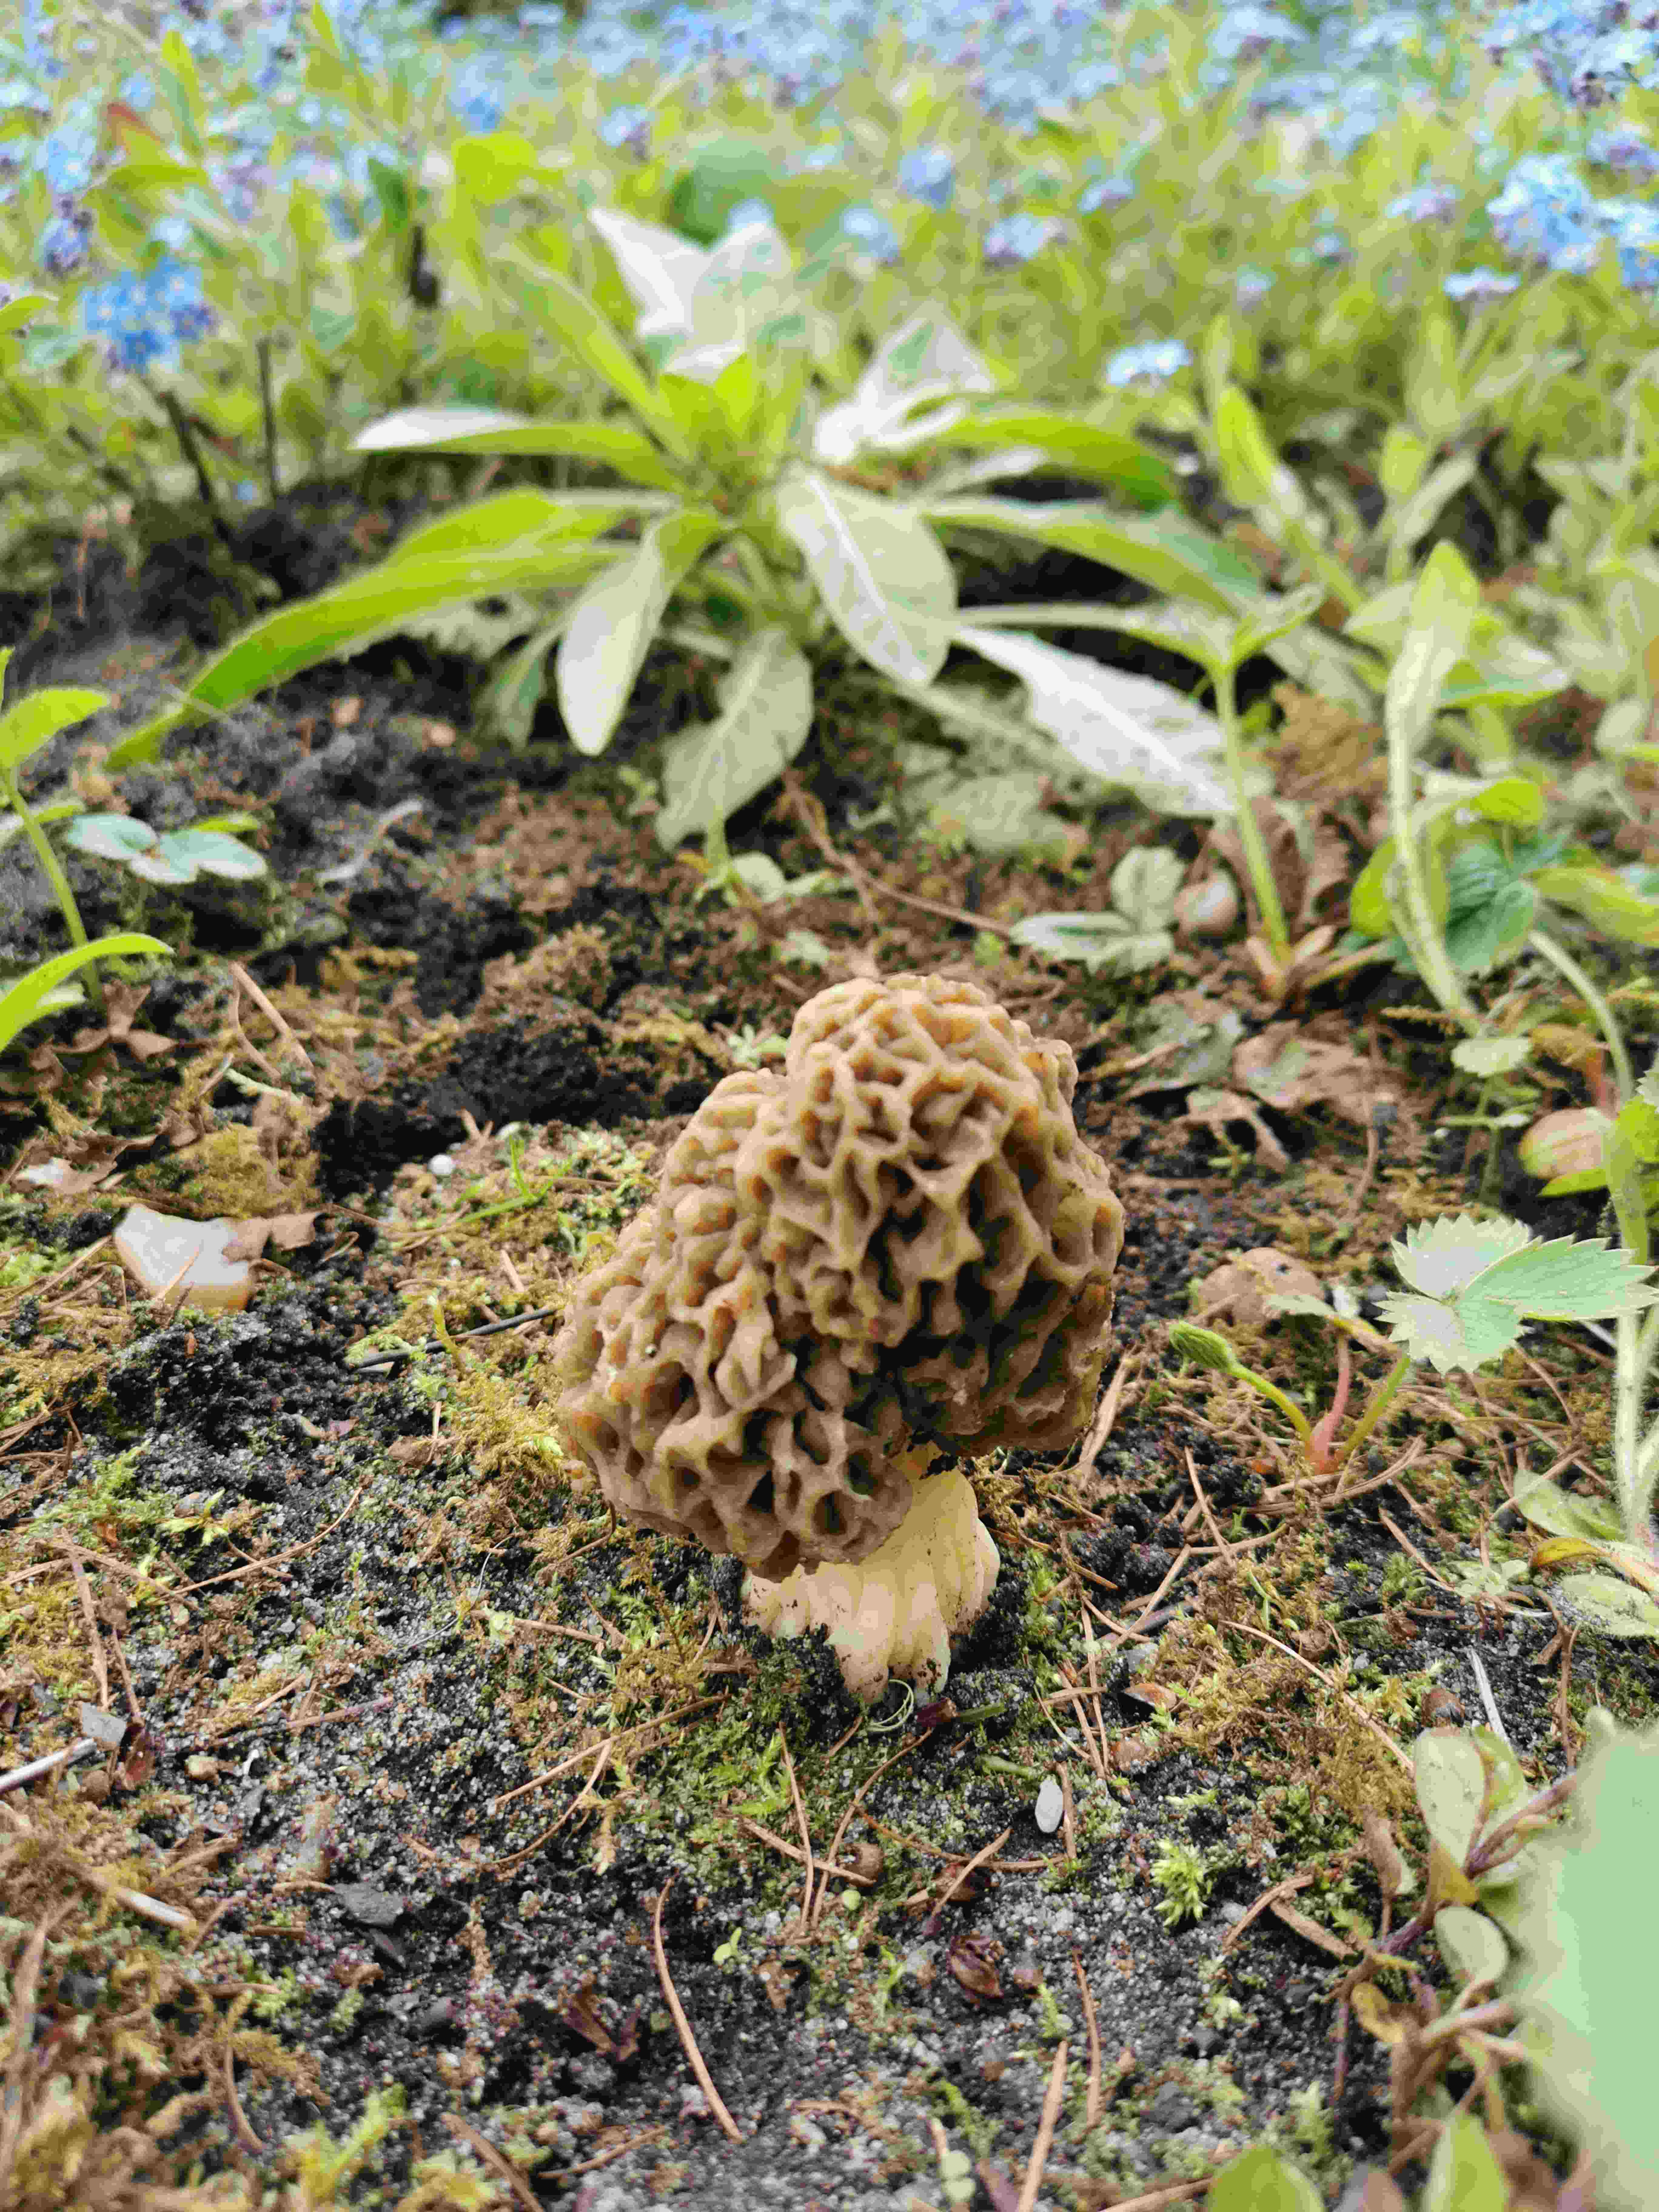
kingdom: Fungi
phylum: Ascomycota
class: Pezizomycetes
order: Pezizales
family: Morchellaceae
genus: Morchella
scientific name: Morchella esculenta
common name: almindelig morkel
